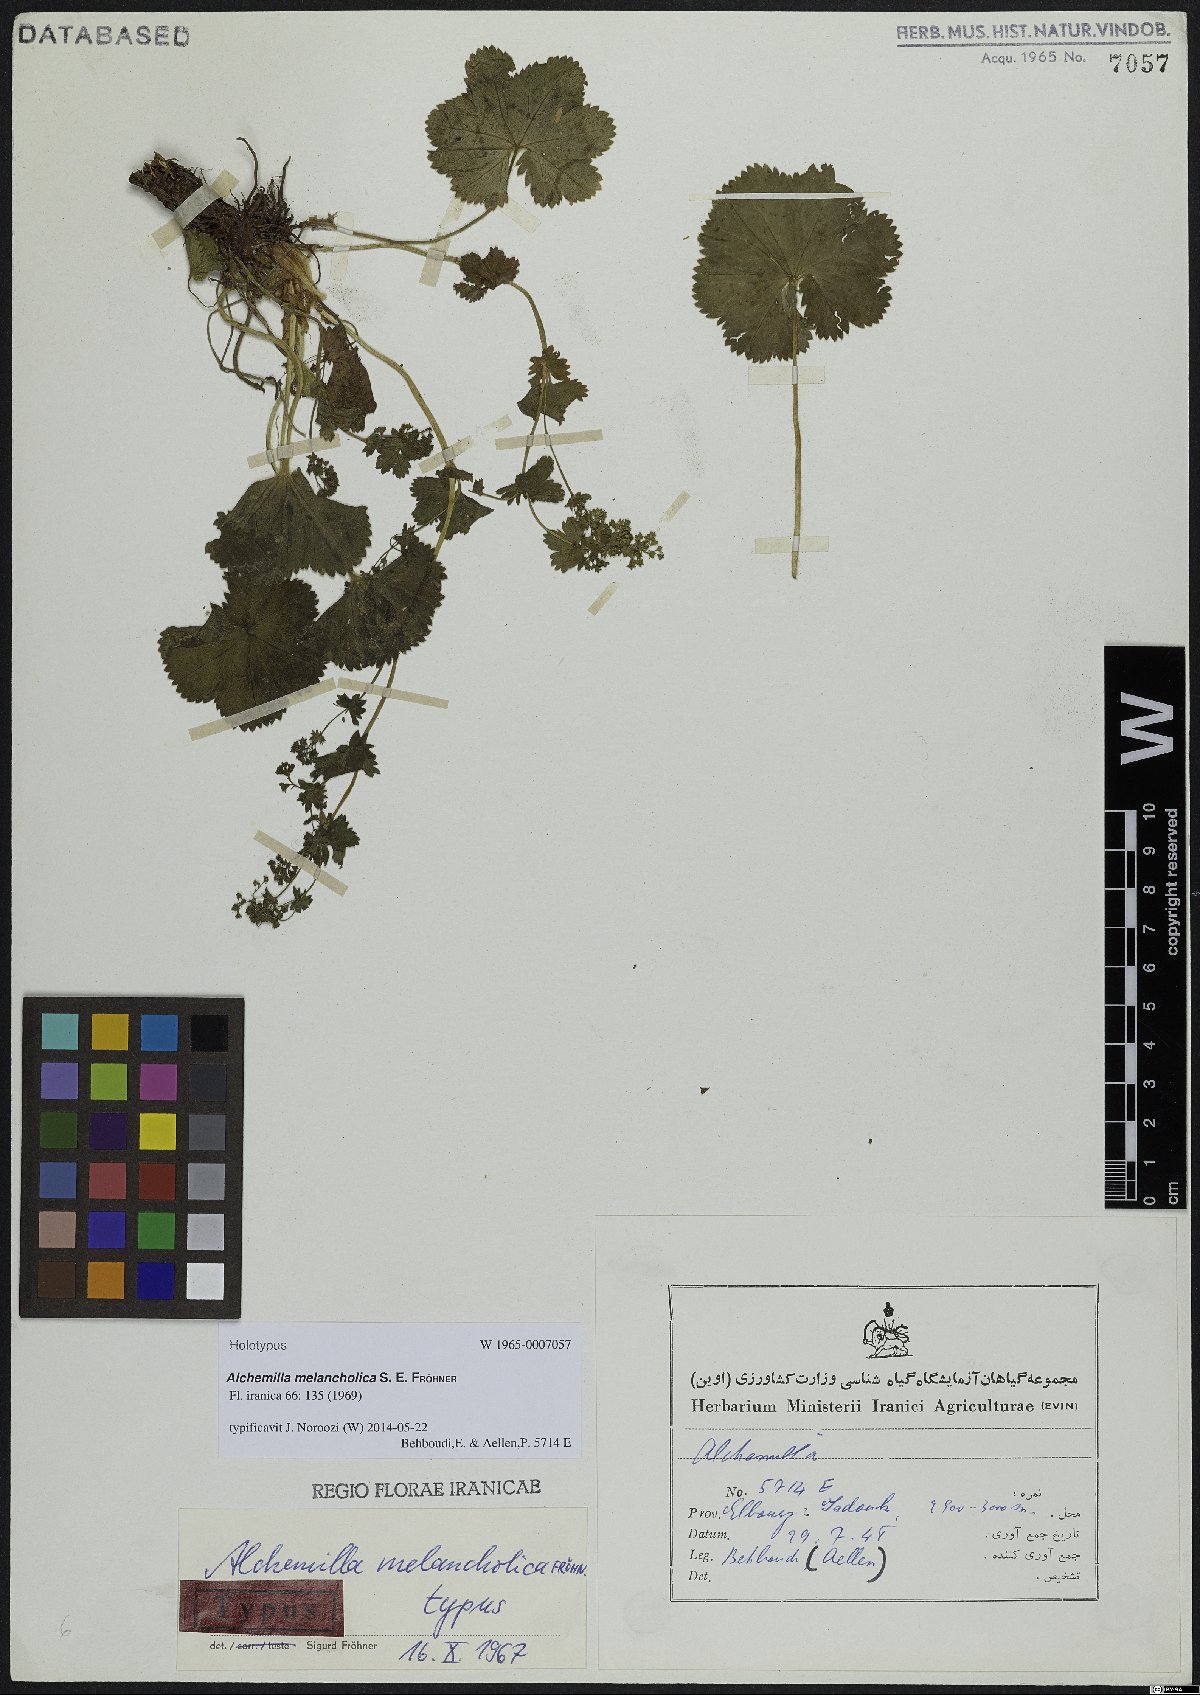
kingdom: Plantae
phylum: Tracheophyta
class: Magnoliopsida
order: Rosales
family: Rosaceae
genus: Alchemilla
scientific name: Alchemilla melancholica
